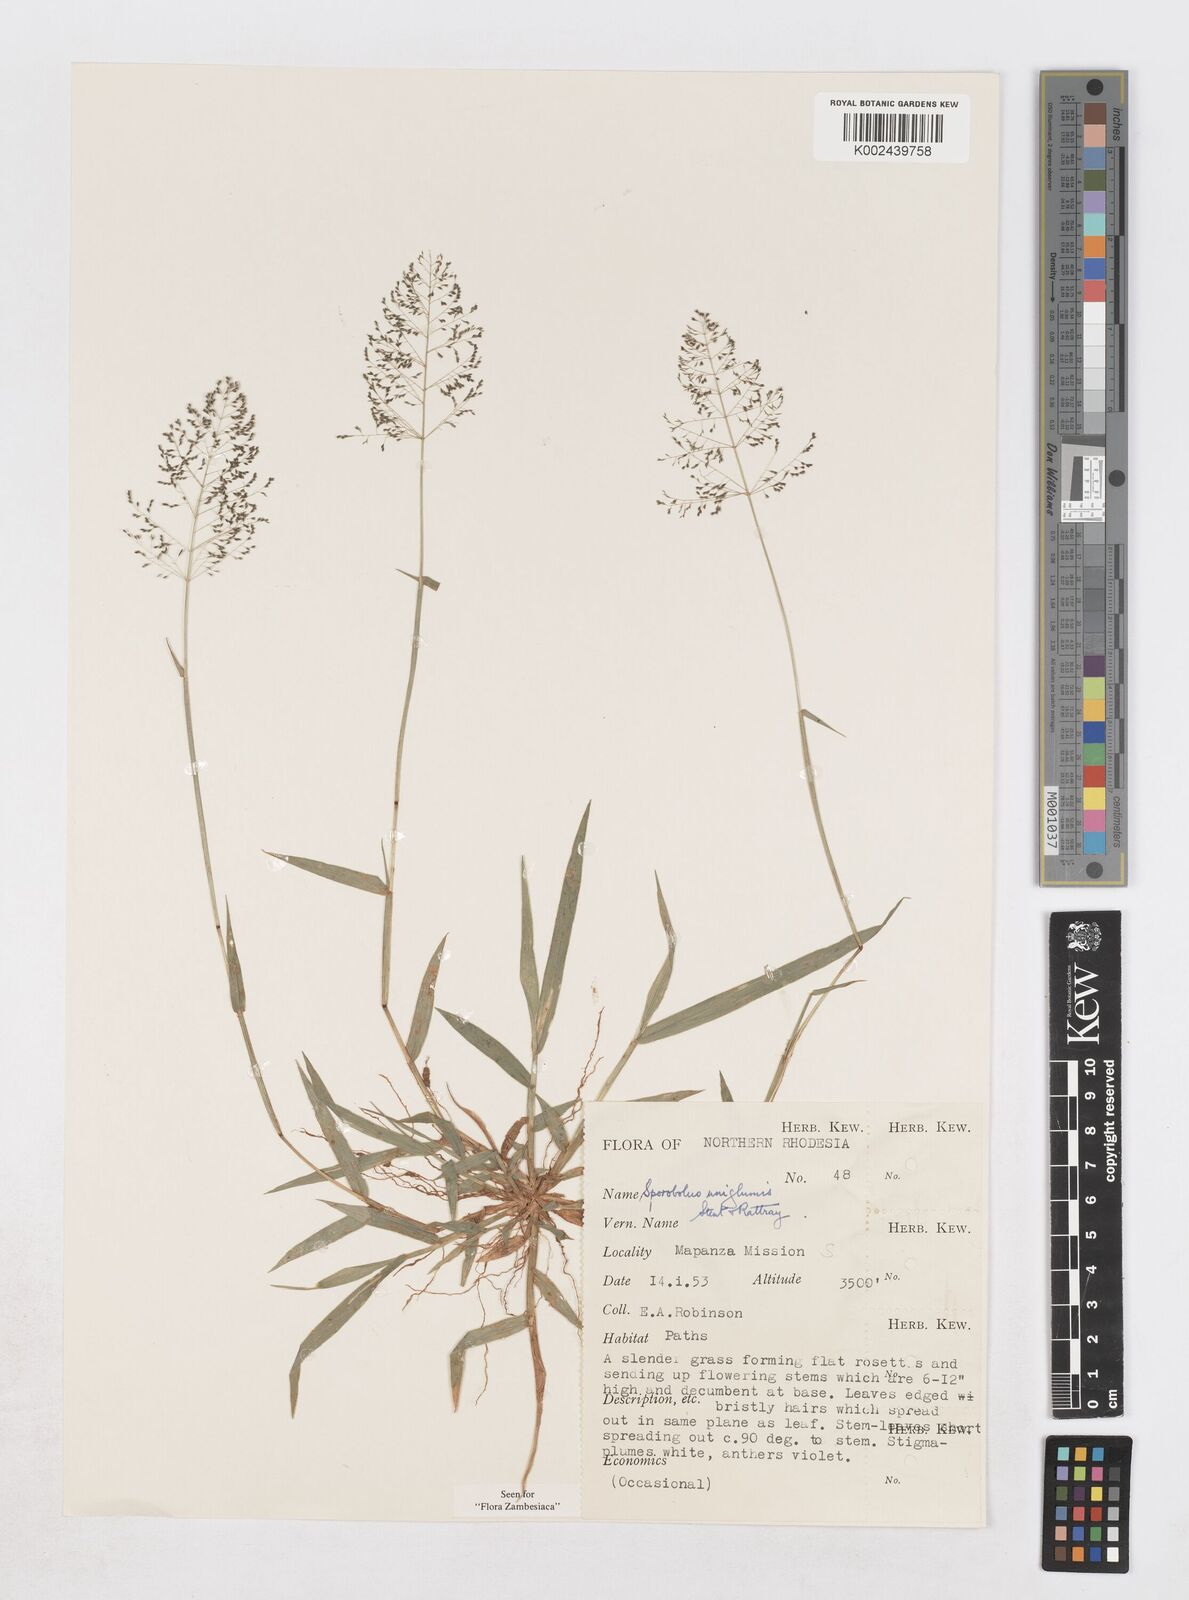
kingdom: Plantae
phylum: Tracheophyta
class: Liliopsida
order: Poales
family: Poaceae
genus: Sporobolus
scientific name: Sporobolus uniglumis
